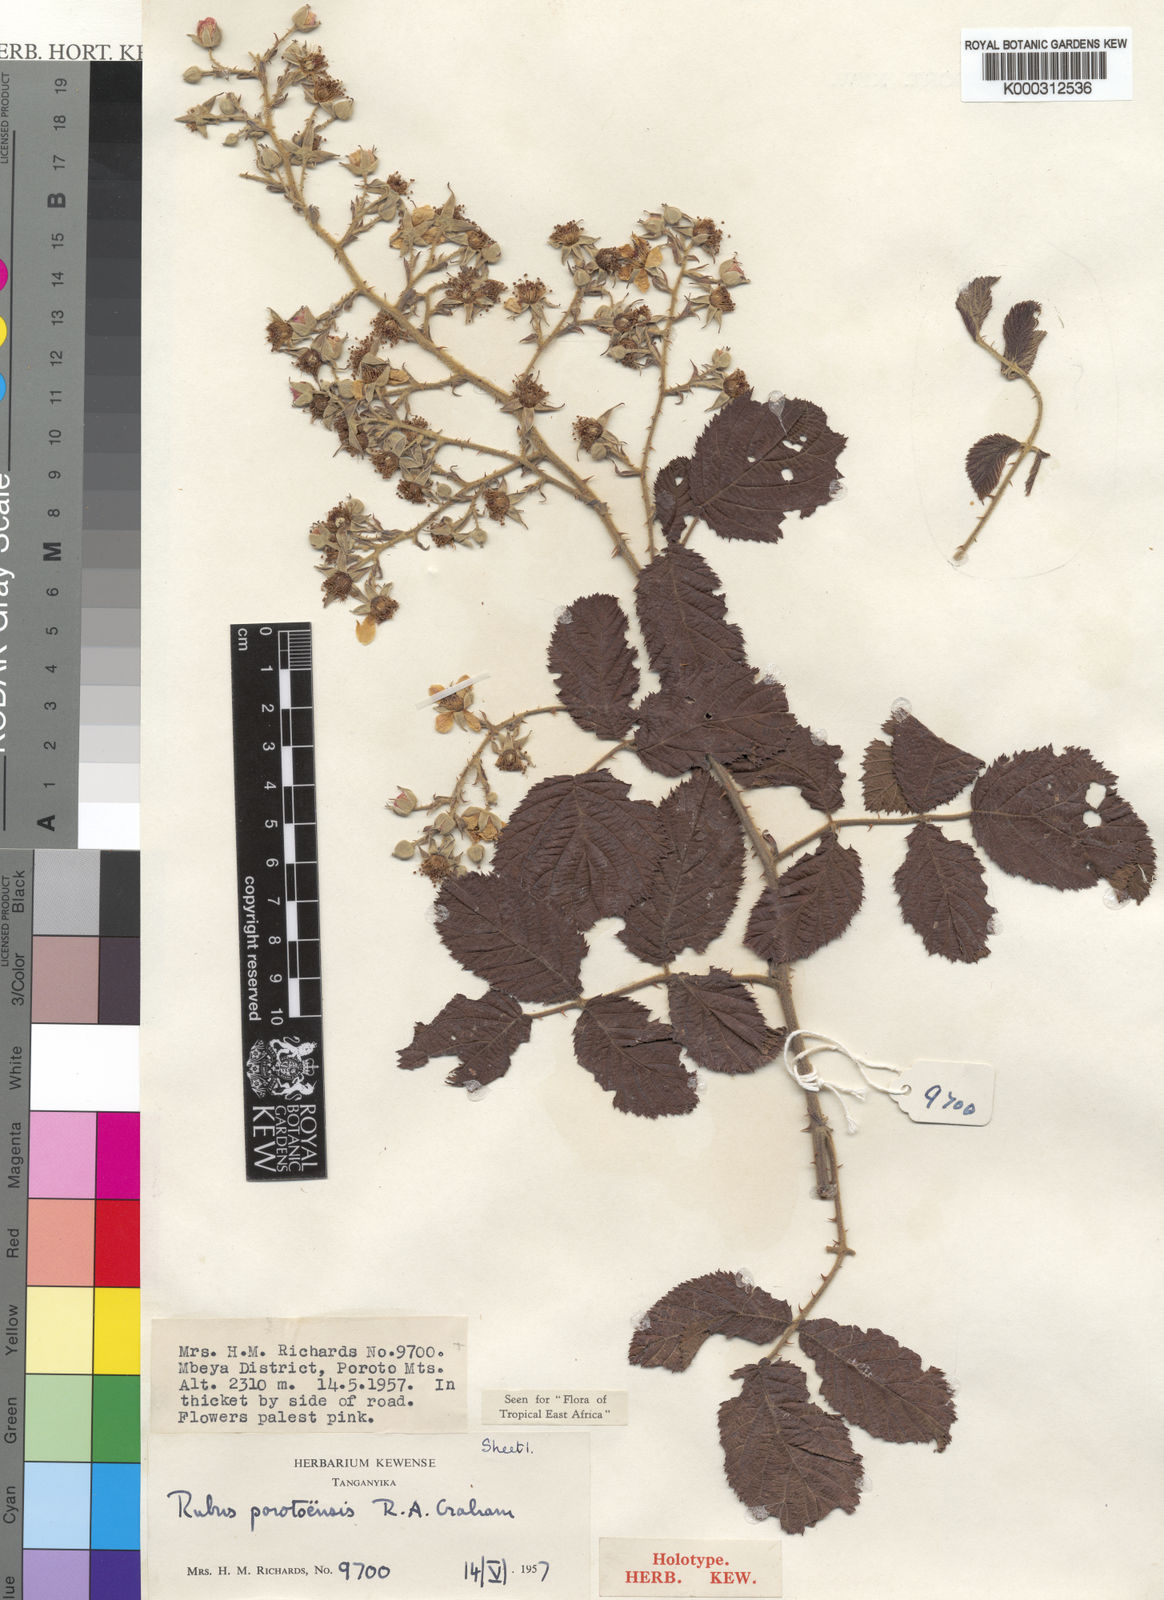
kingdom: Plantae
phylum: Tracheophyta
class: Magnoliopsida
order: Rosales
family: Rosaceae
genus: Rubus
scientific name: Rubus porotoensis
